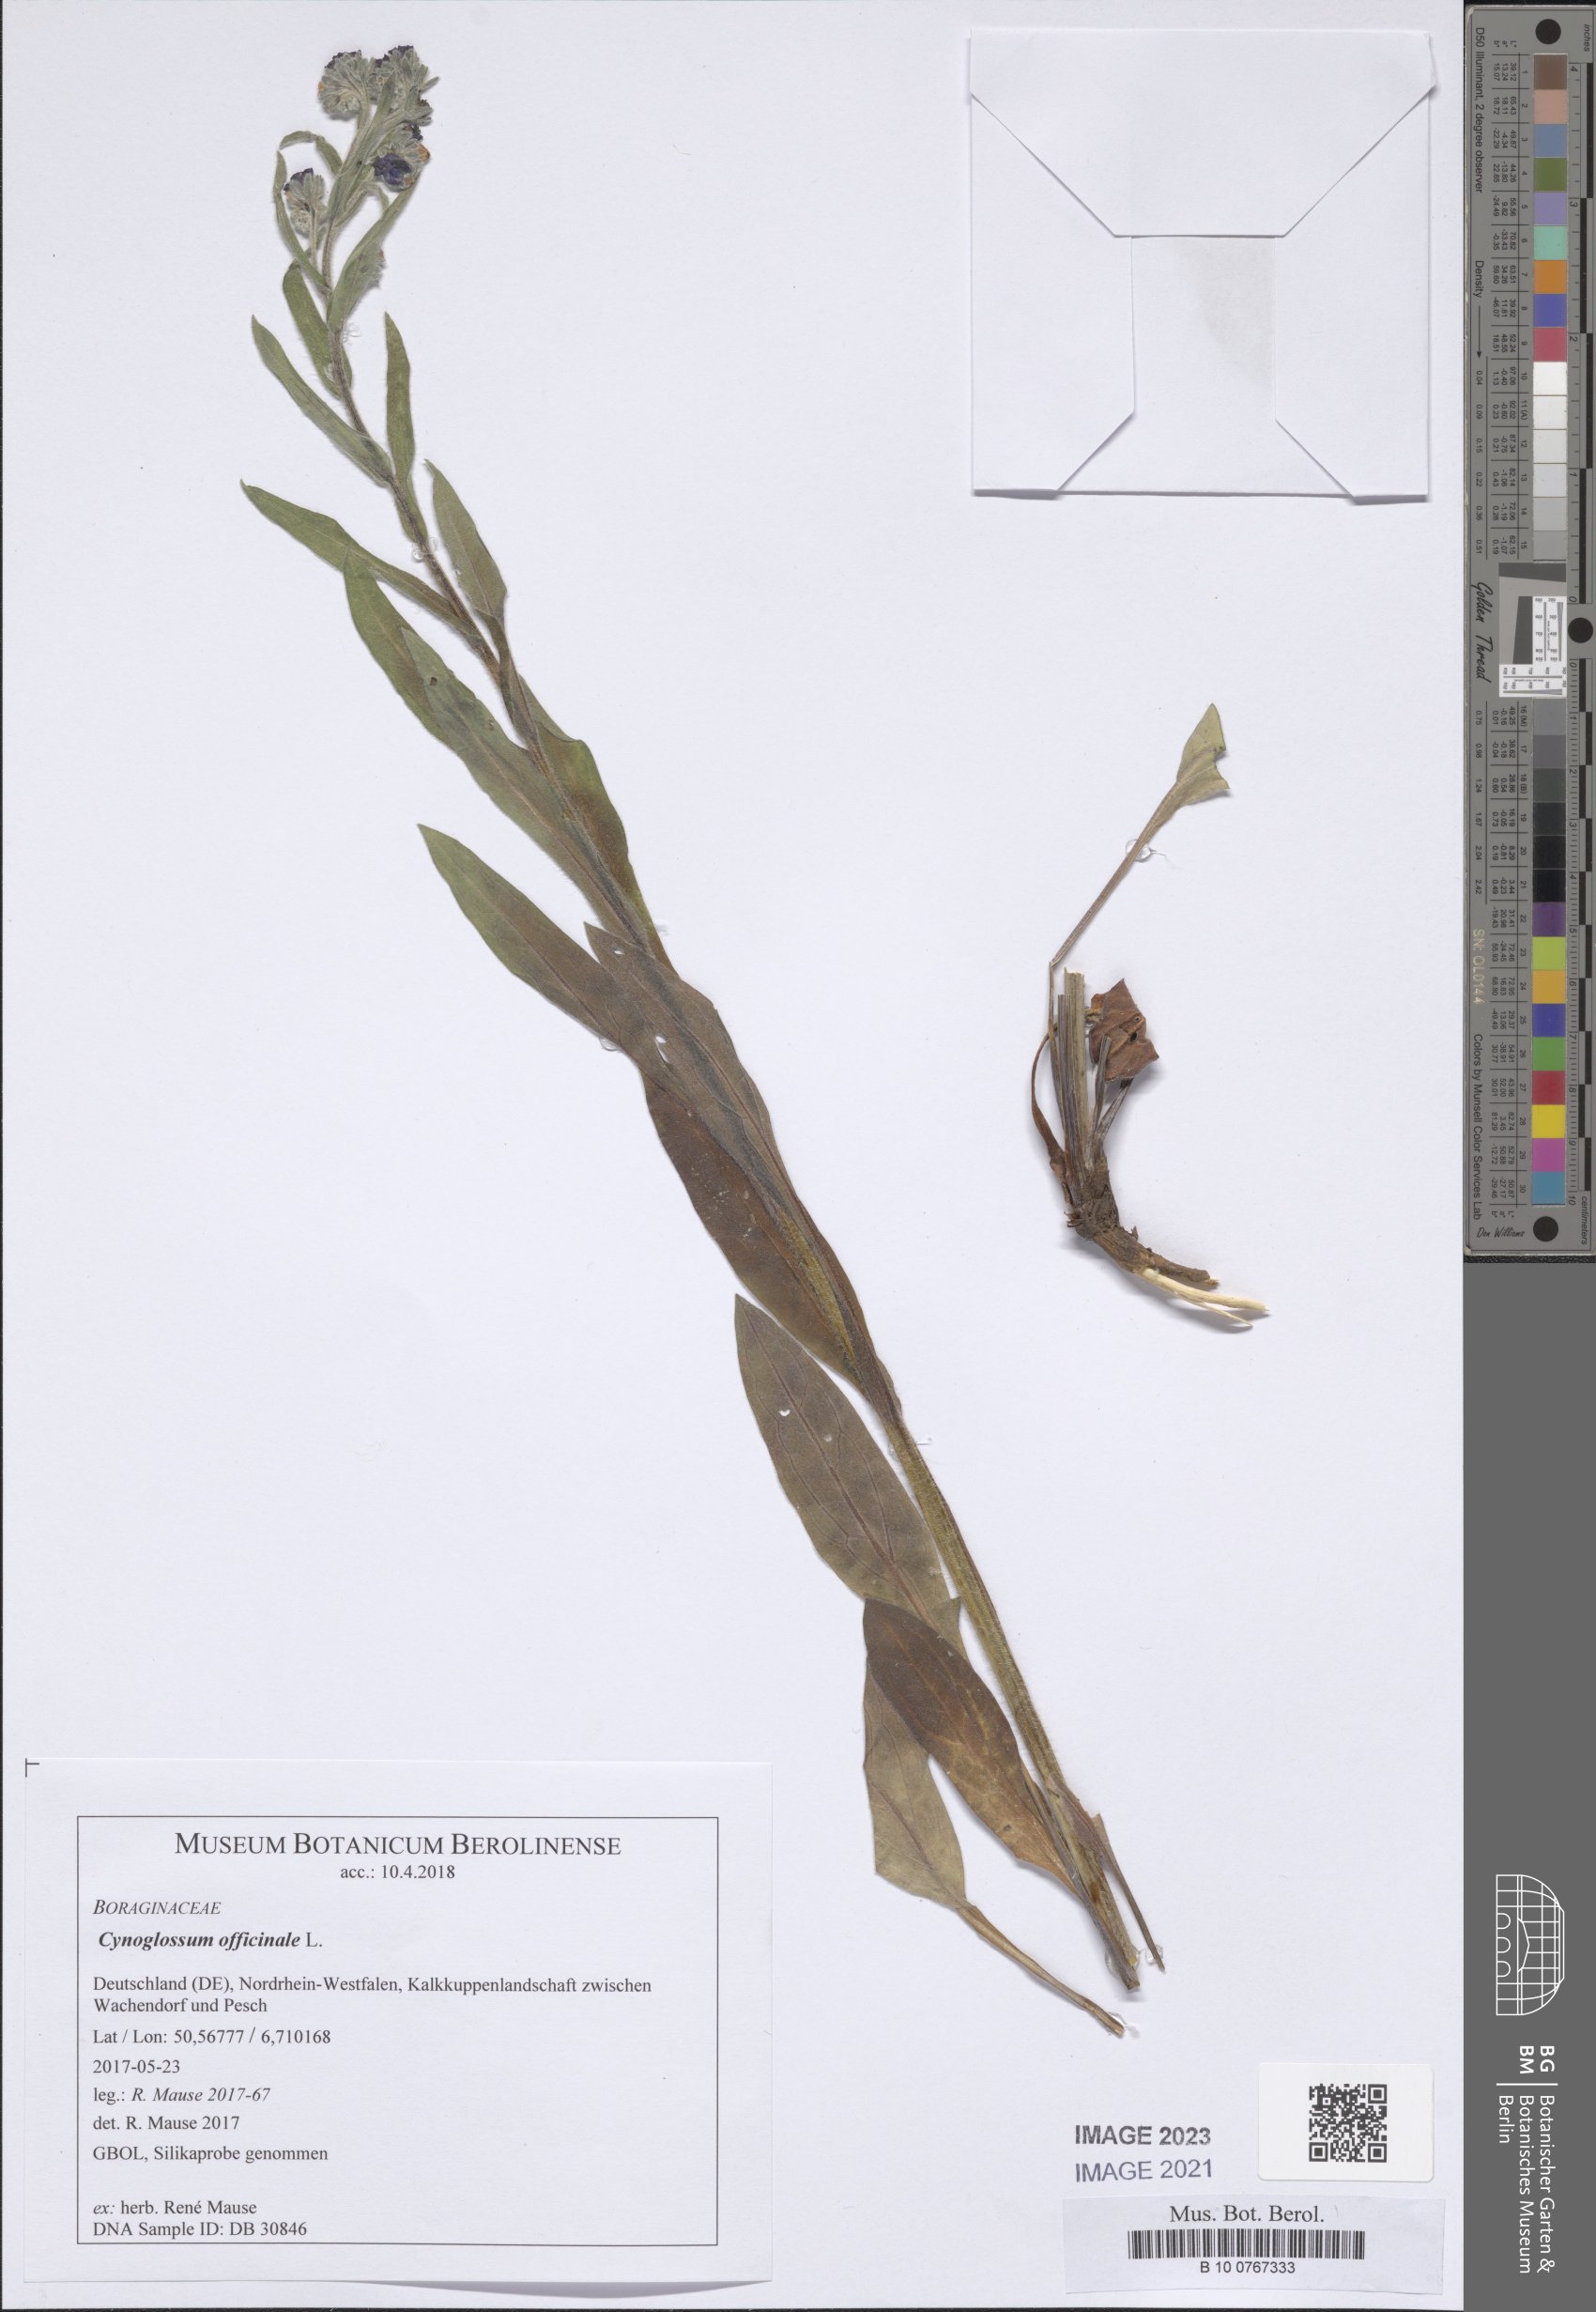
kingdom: Plantae
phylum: Tracheophyta
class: Magnoliopsida
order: Boraginales
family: Boraginaceae
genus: Cynoglossum
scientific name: Cynoglossum officinale
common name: Hound's-tongue
